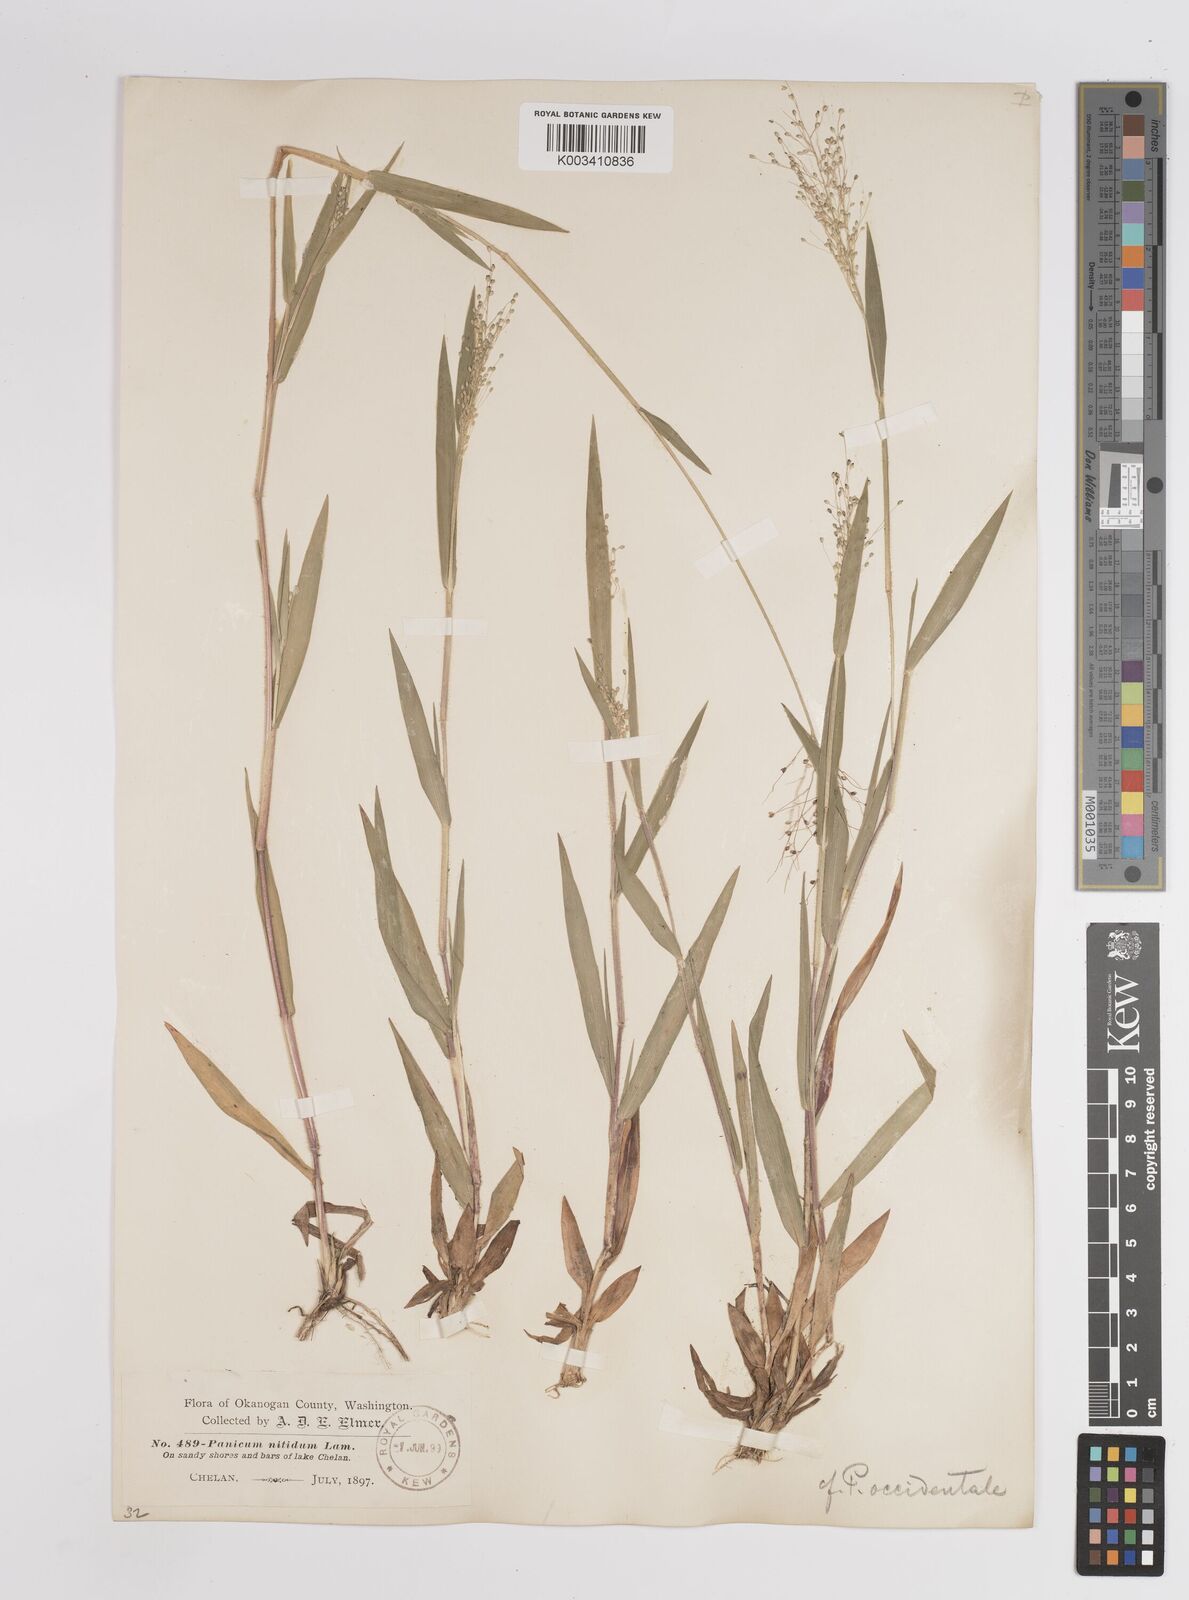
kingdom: Plantae
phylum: Tracheophyta
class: Liliopsida
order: Poales
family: Poaceae
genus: Dichanthelium
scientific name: Dichanthelium implicatum
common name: Slender-stemmed panicgrass
